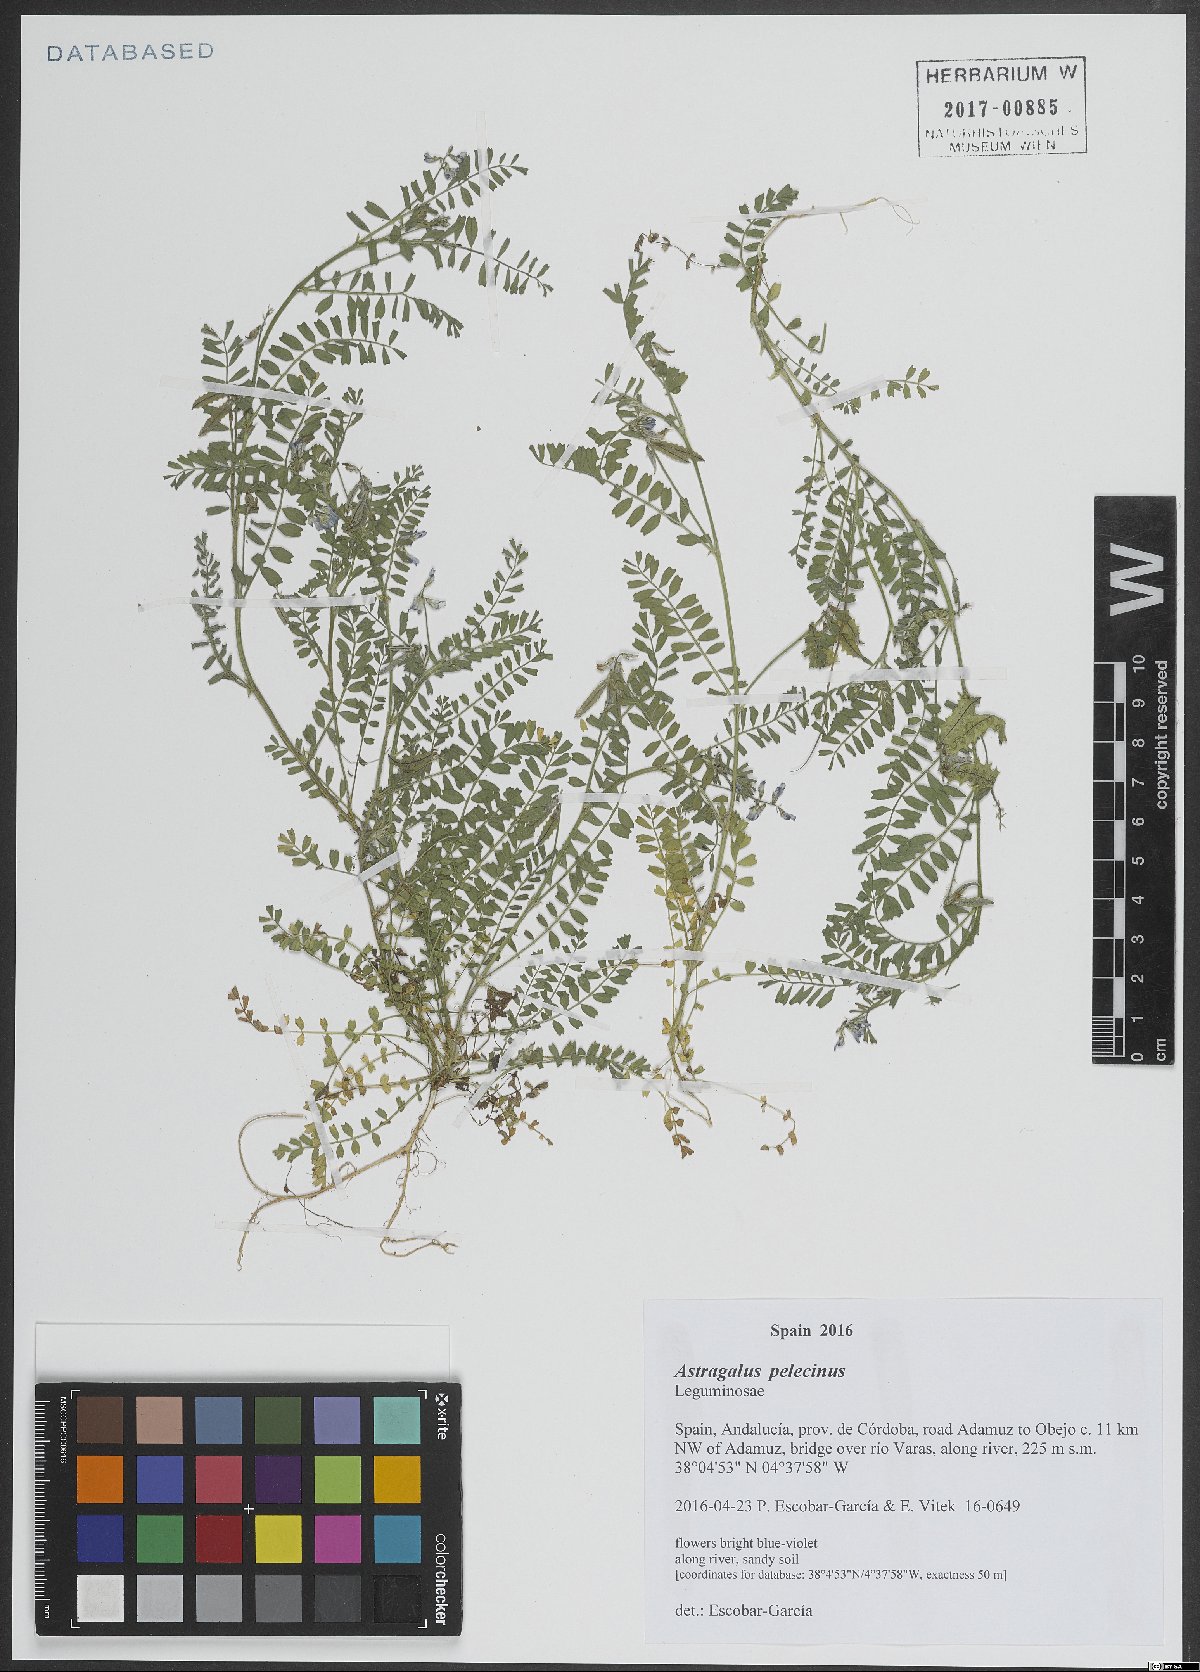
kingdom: Plantae
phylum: Tracheophyta
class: Magnoliopsida
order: Fabales
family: Fabaceae
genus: Biserrula
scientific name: Biserrula pelecinus
